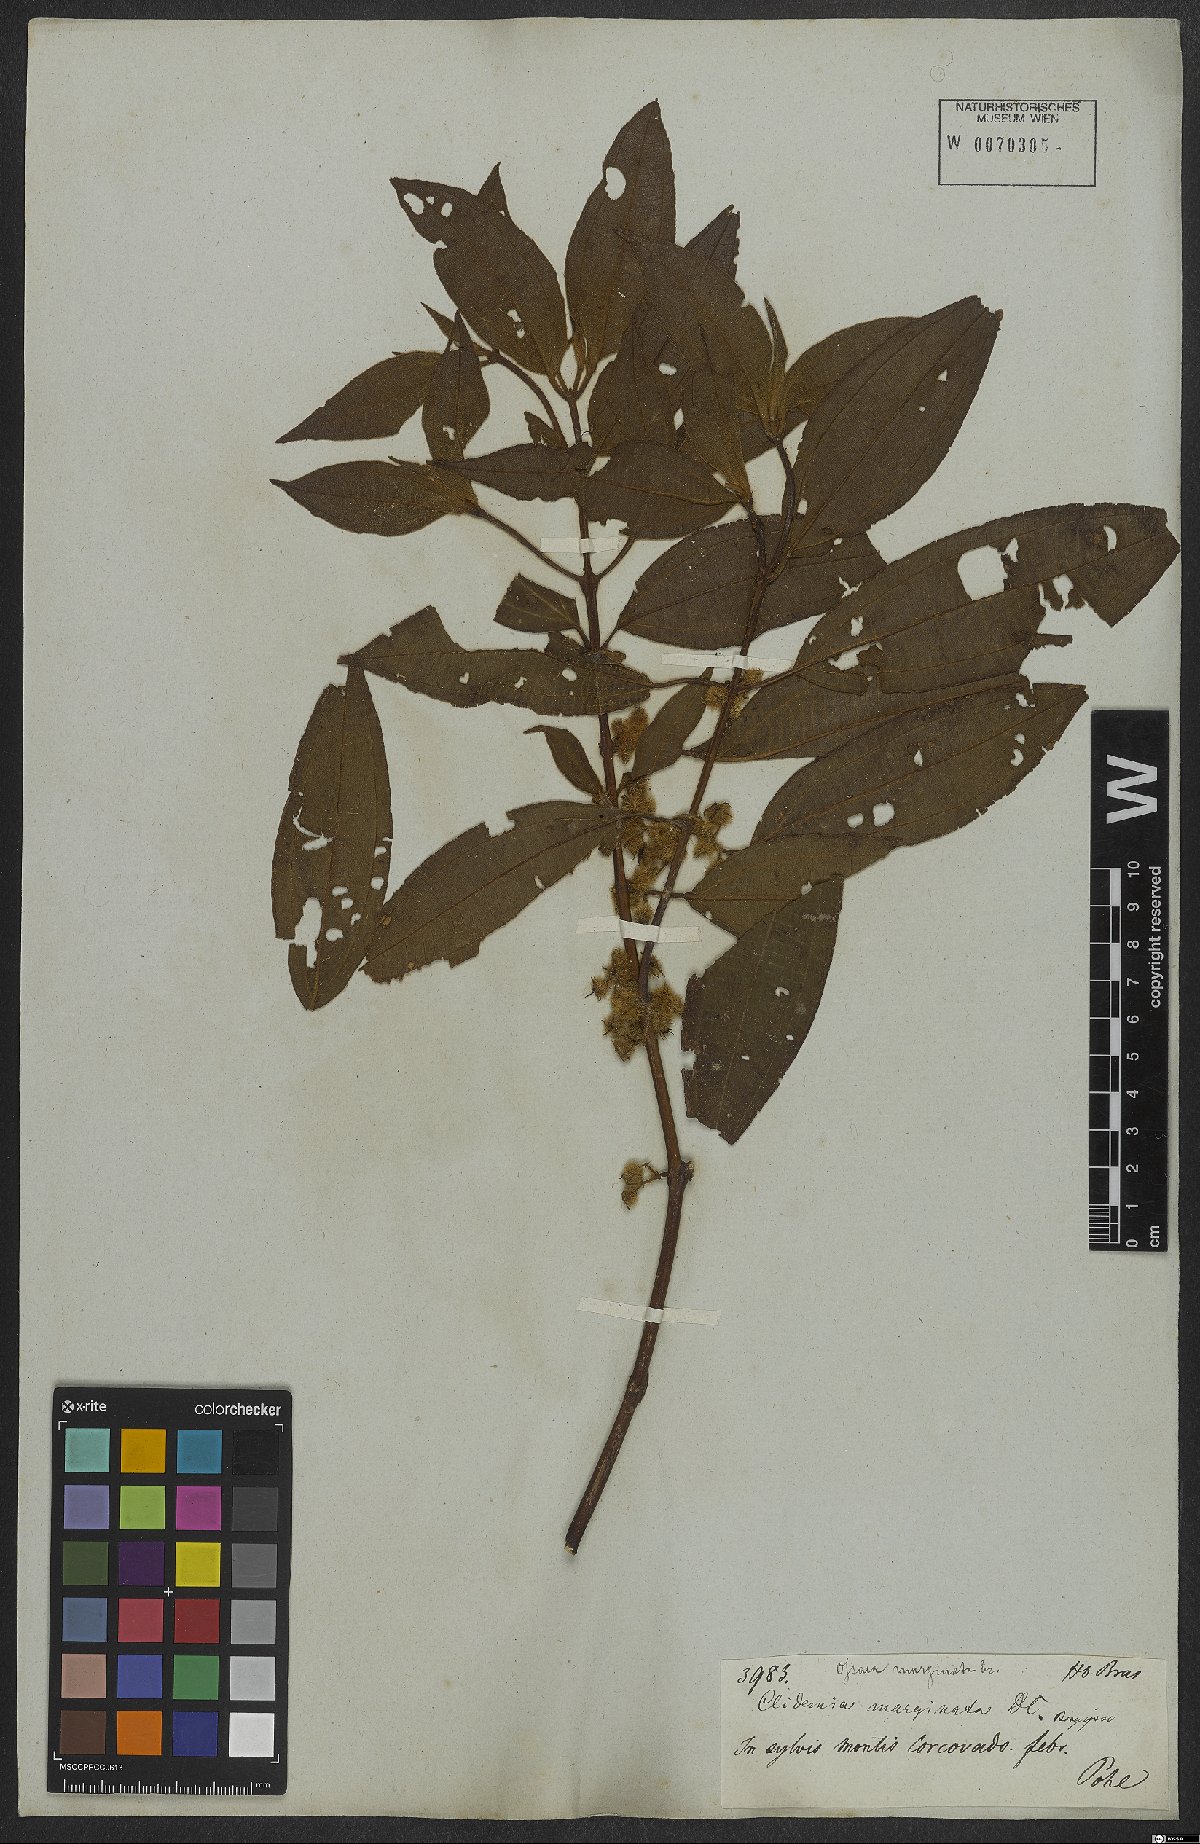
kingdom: Plantae
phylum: Tracheophyta
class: Magnoliopsida
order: Myrtales
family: Melastomataceae
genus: Miconia
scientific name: Miconia leamarginata
